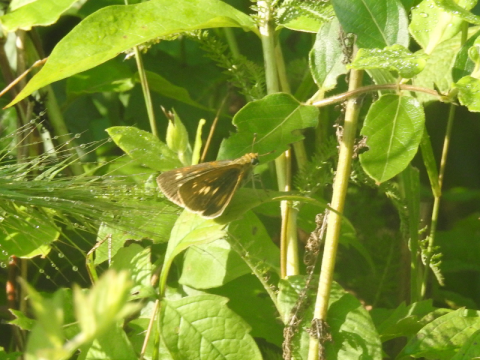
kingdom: Animalia
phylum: Arthropoda
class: Insecta
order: Lepidoptera
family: Hesperiidae
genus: Euphyes
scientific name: Euphyes
